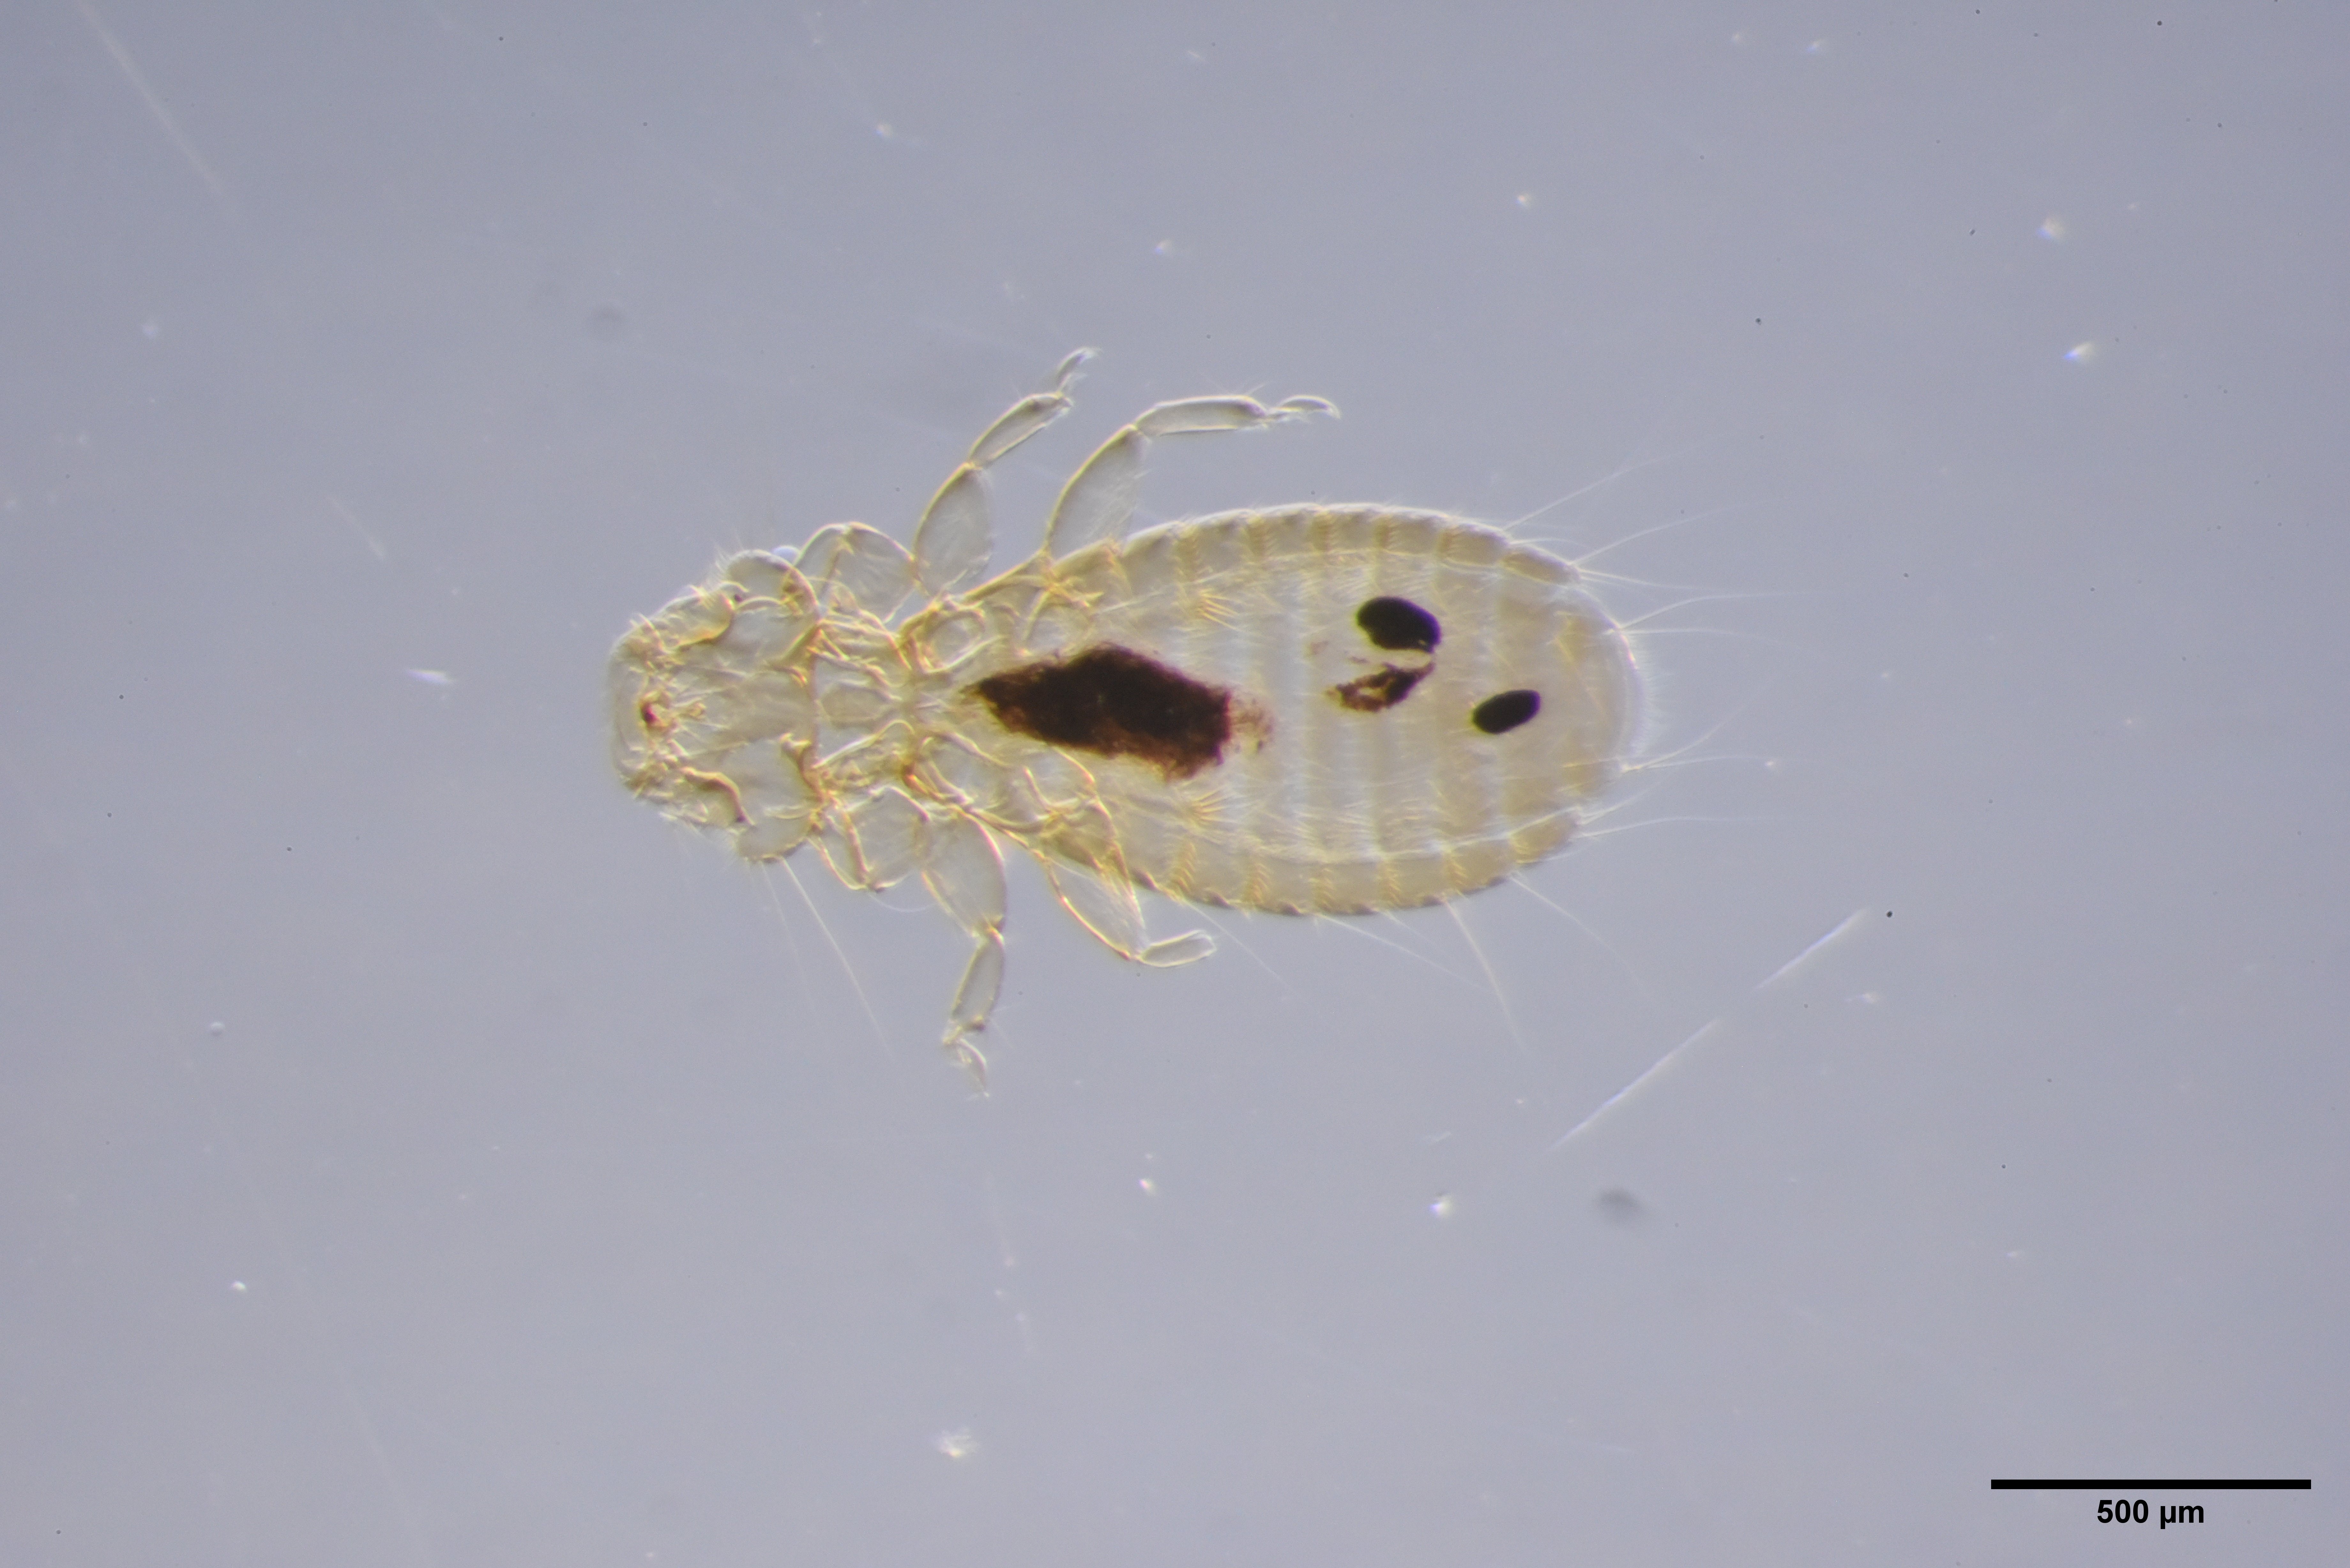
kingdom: Animalia
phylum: Arthropoda
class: Insecta
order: Psocodea
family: Menoponidae
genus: Myrsidea
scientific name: Myrsidea latifrons
